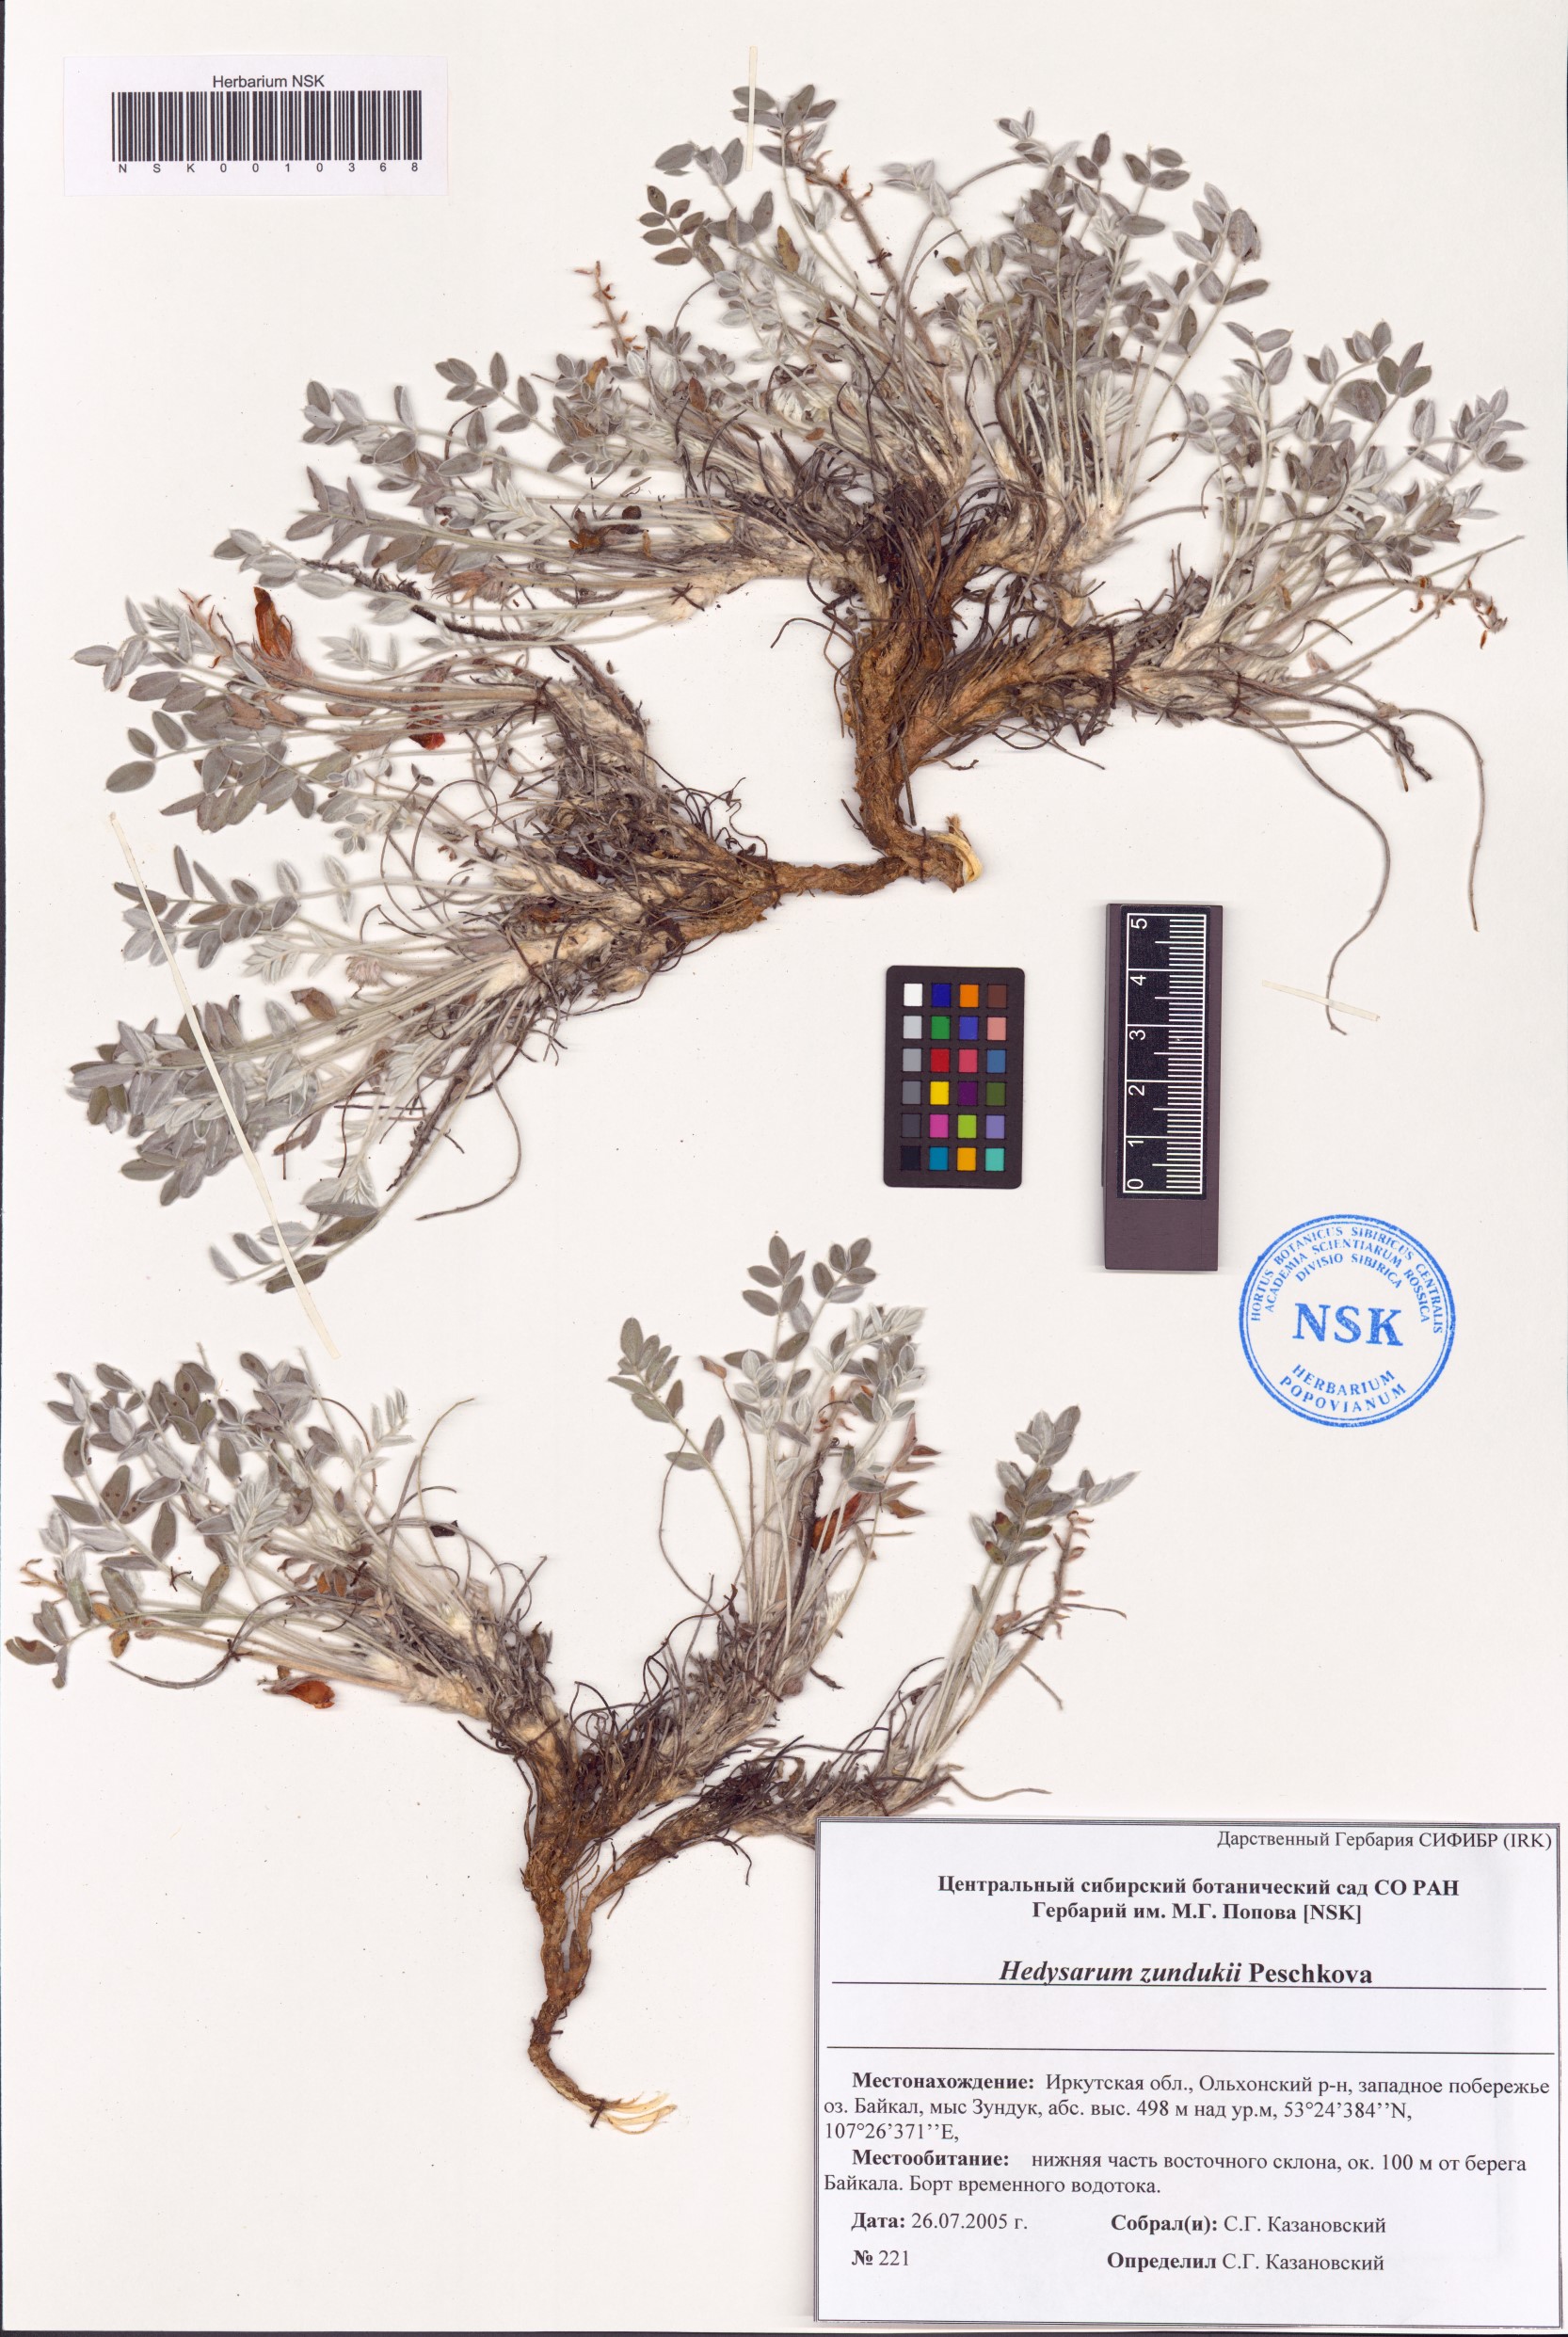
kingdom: Plantae
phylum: Tracheophyta
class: Magnoliopsida
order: Fabales
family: Fabaceae
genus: Hedysarum
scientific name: Hedysarum zundukii
